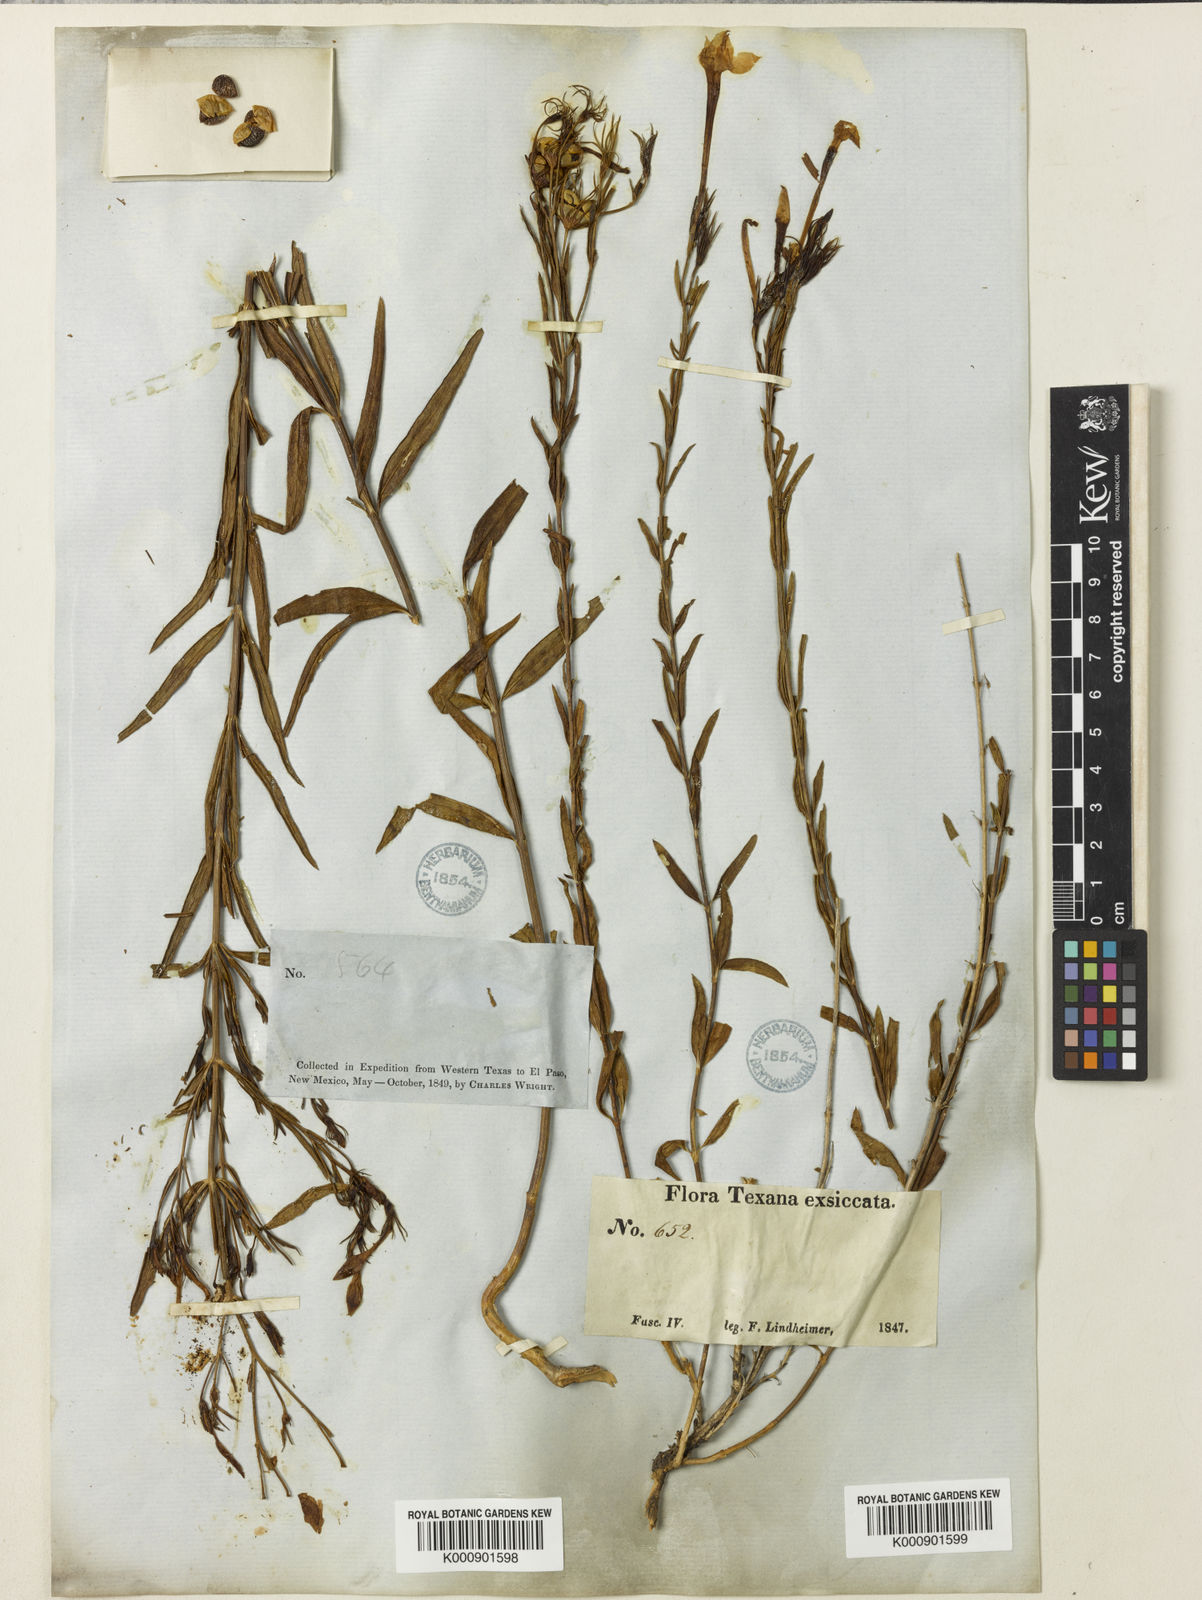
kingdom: Plantae
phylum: Tracheophyta
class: Magnoliopsida
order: Lamiales
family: Oleaceae
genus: Menodora
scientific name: Menodora longiflora
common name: Showy menodora
